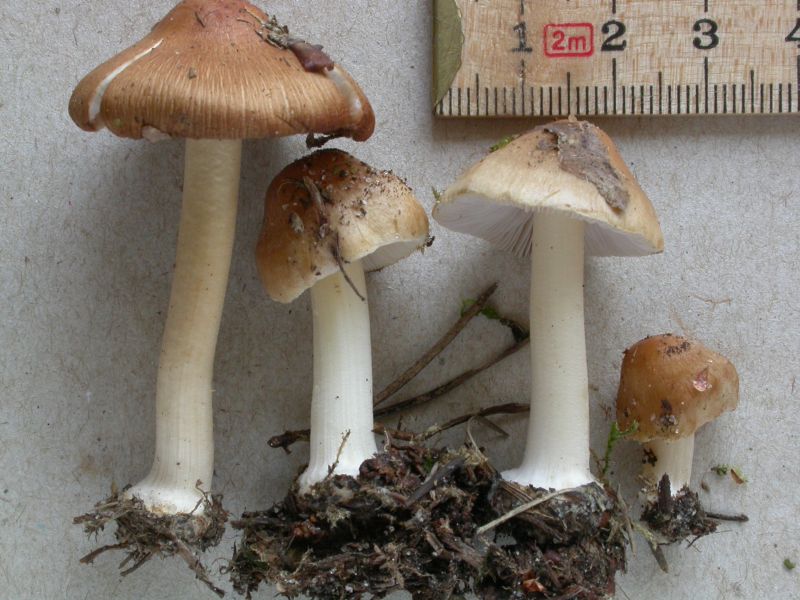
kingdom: Fungi
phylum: Basidiomycota
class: Agaricomycetes
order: Agaricales
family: Inocybaceae
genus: Inocybe
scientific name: Inocybe mixtilis
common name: randknoldet trævlhat
